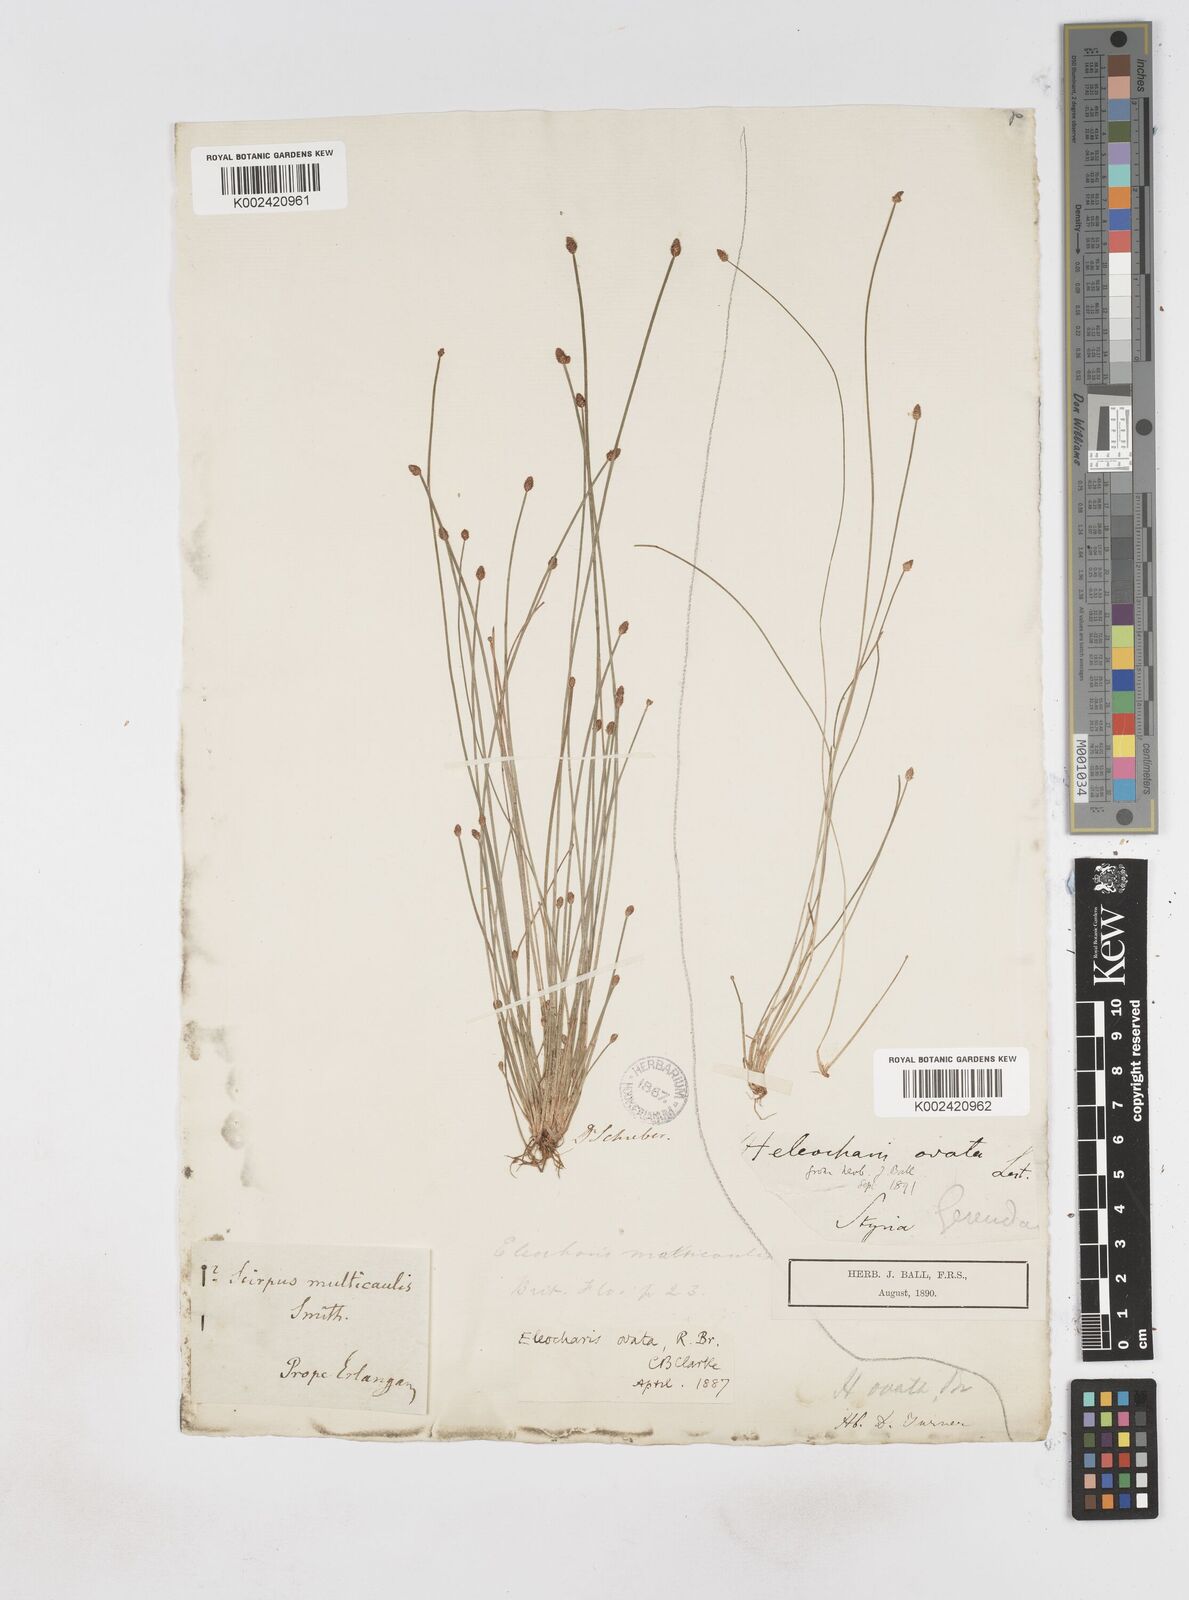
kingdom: Plantae
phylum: Tracheophyta
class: Liliopsida
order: Poales
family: Cyperaceae
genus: Eleocharis
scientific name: Eleocharis ovata
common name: Oval spike-rush
